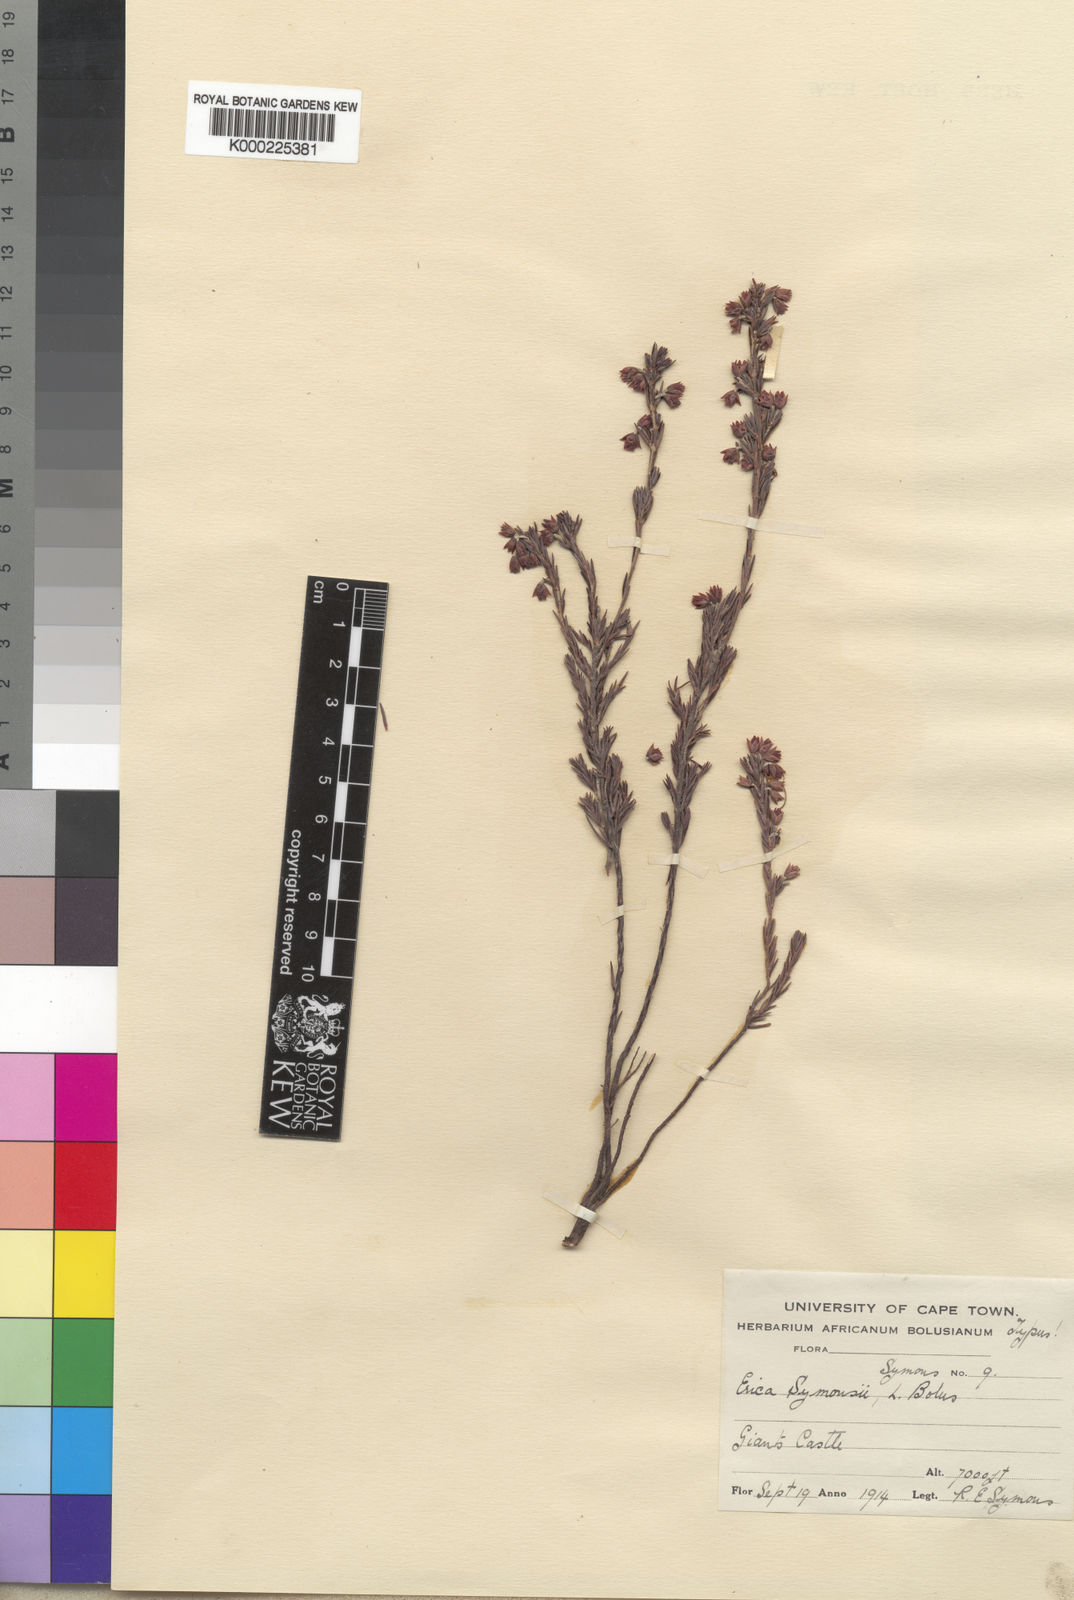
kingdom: Plantae
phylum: Tracheophyta
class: Magnoliopsida
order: Ericales
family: Ericaceae
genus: Erica
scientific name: Erica straussiana
